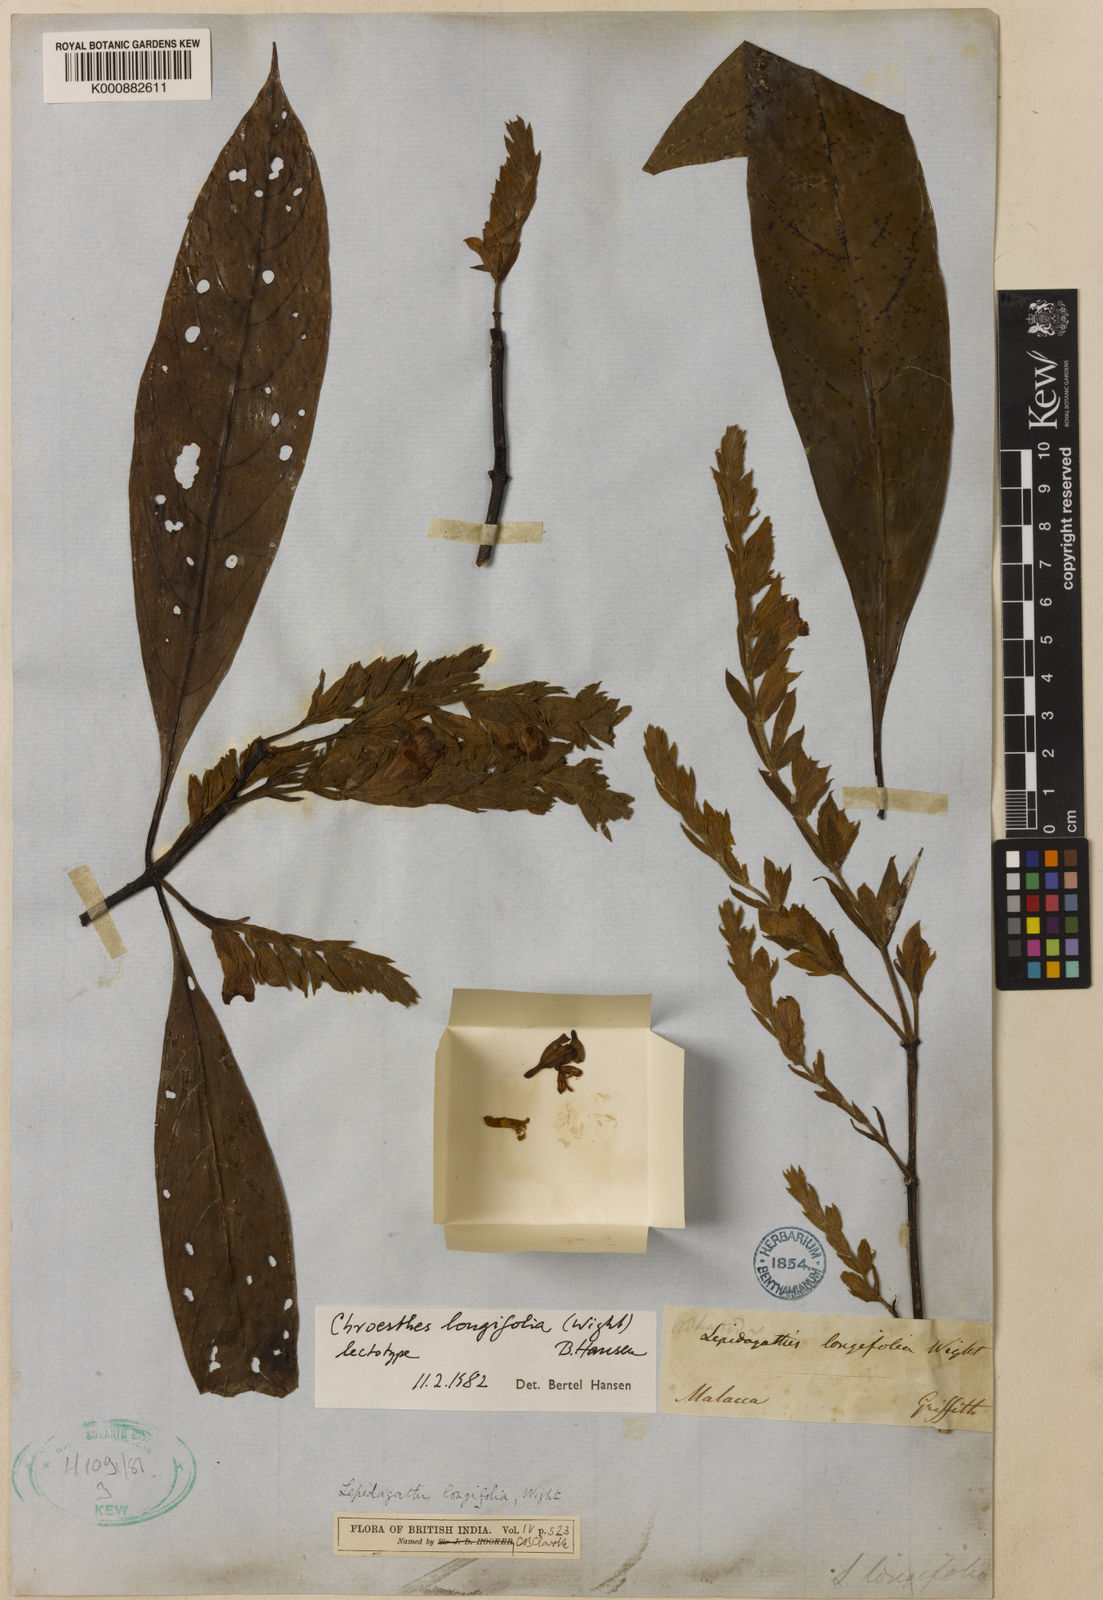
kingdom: Plantae
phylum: Tracheophyta
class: Magnoliopsida
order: Lamiales
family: Acanthaceae
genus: Chroesthes
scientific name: Chroesthes longifolia
